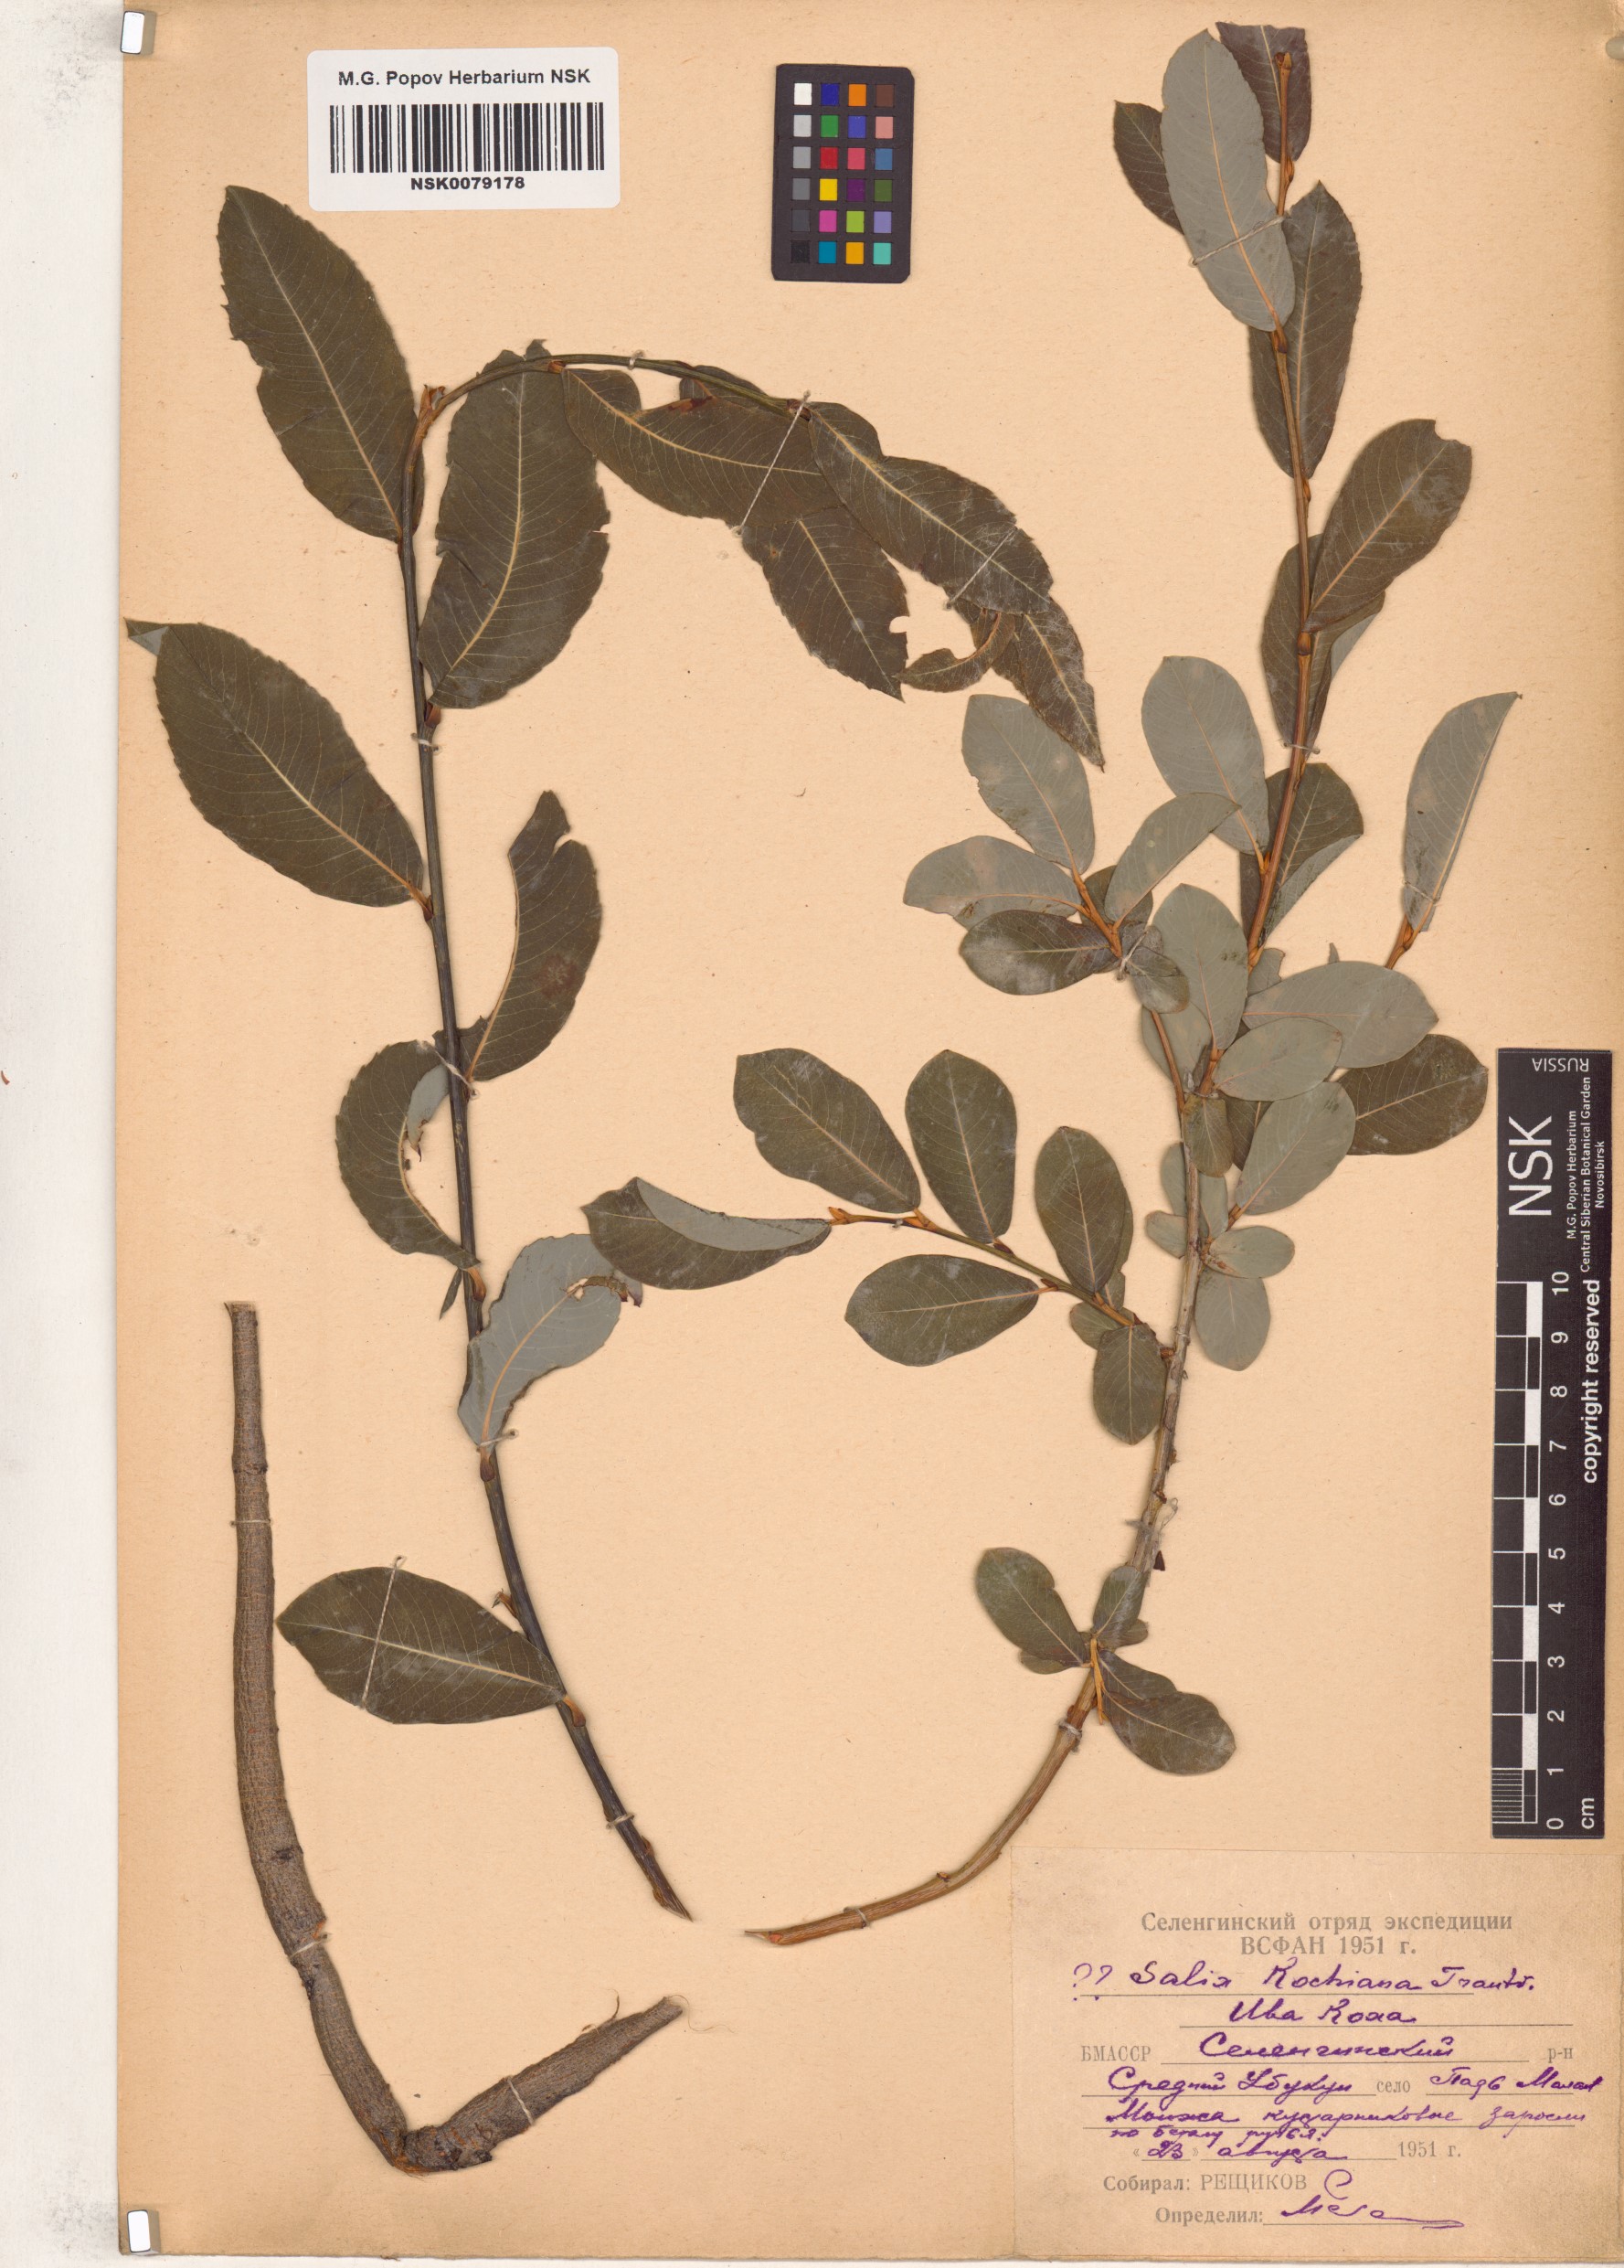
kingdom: Plantae
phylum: Tracheophyta
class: Magnoliopsida
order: Malpighiales
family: Salicaceae
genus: Salix
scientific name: Salix kochiana
